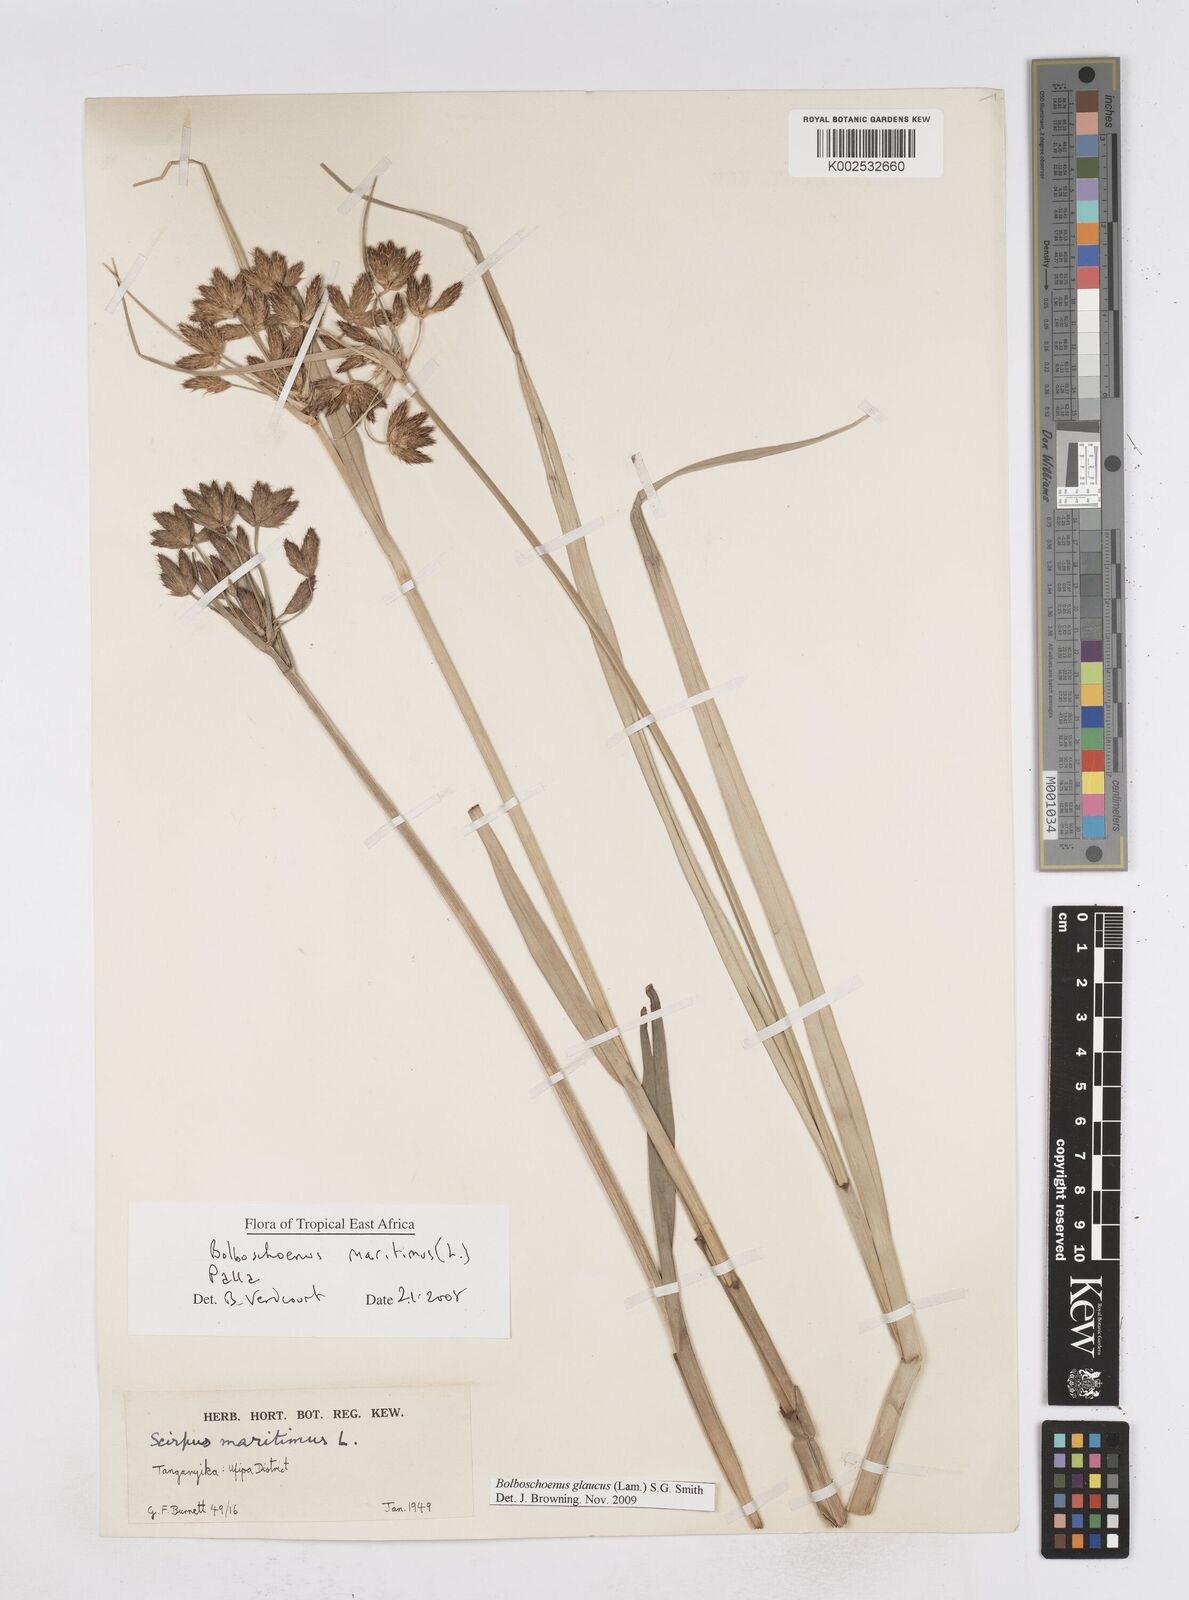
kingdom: Plantae
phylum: Tracheophyta
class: Liliopsida
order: Poales
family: Cyperaceae
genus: Bolboschoenus
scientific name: Bolboschoenus glaucus
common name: Tuberous bulrush
